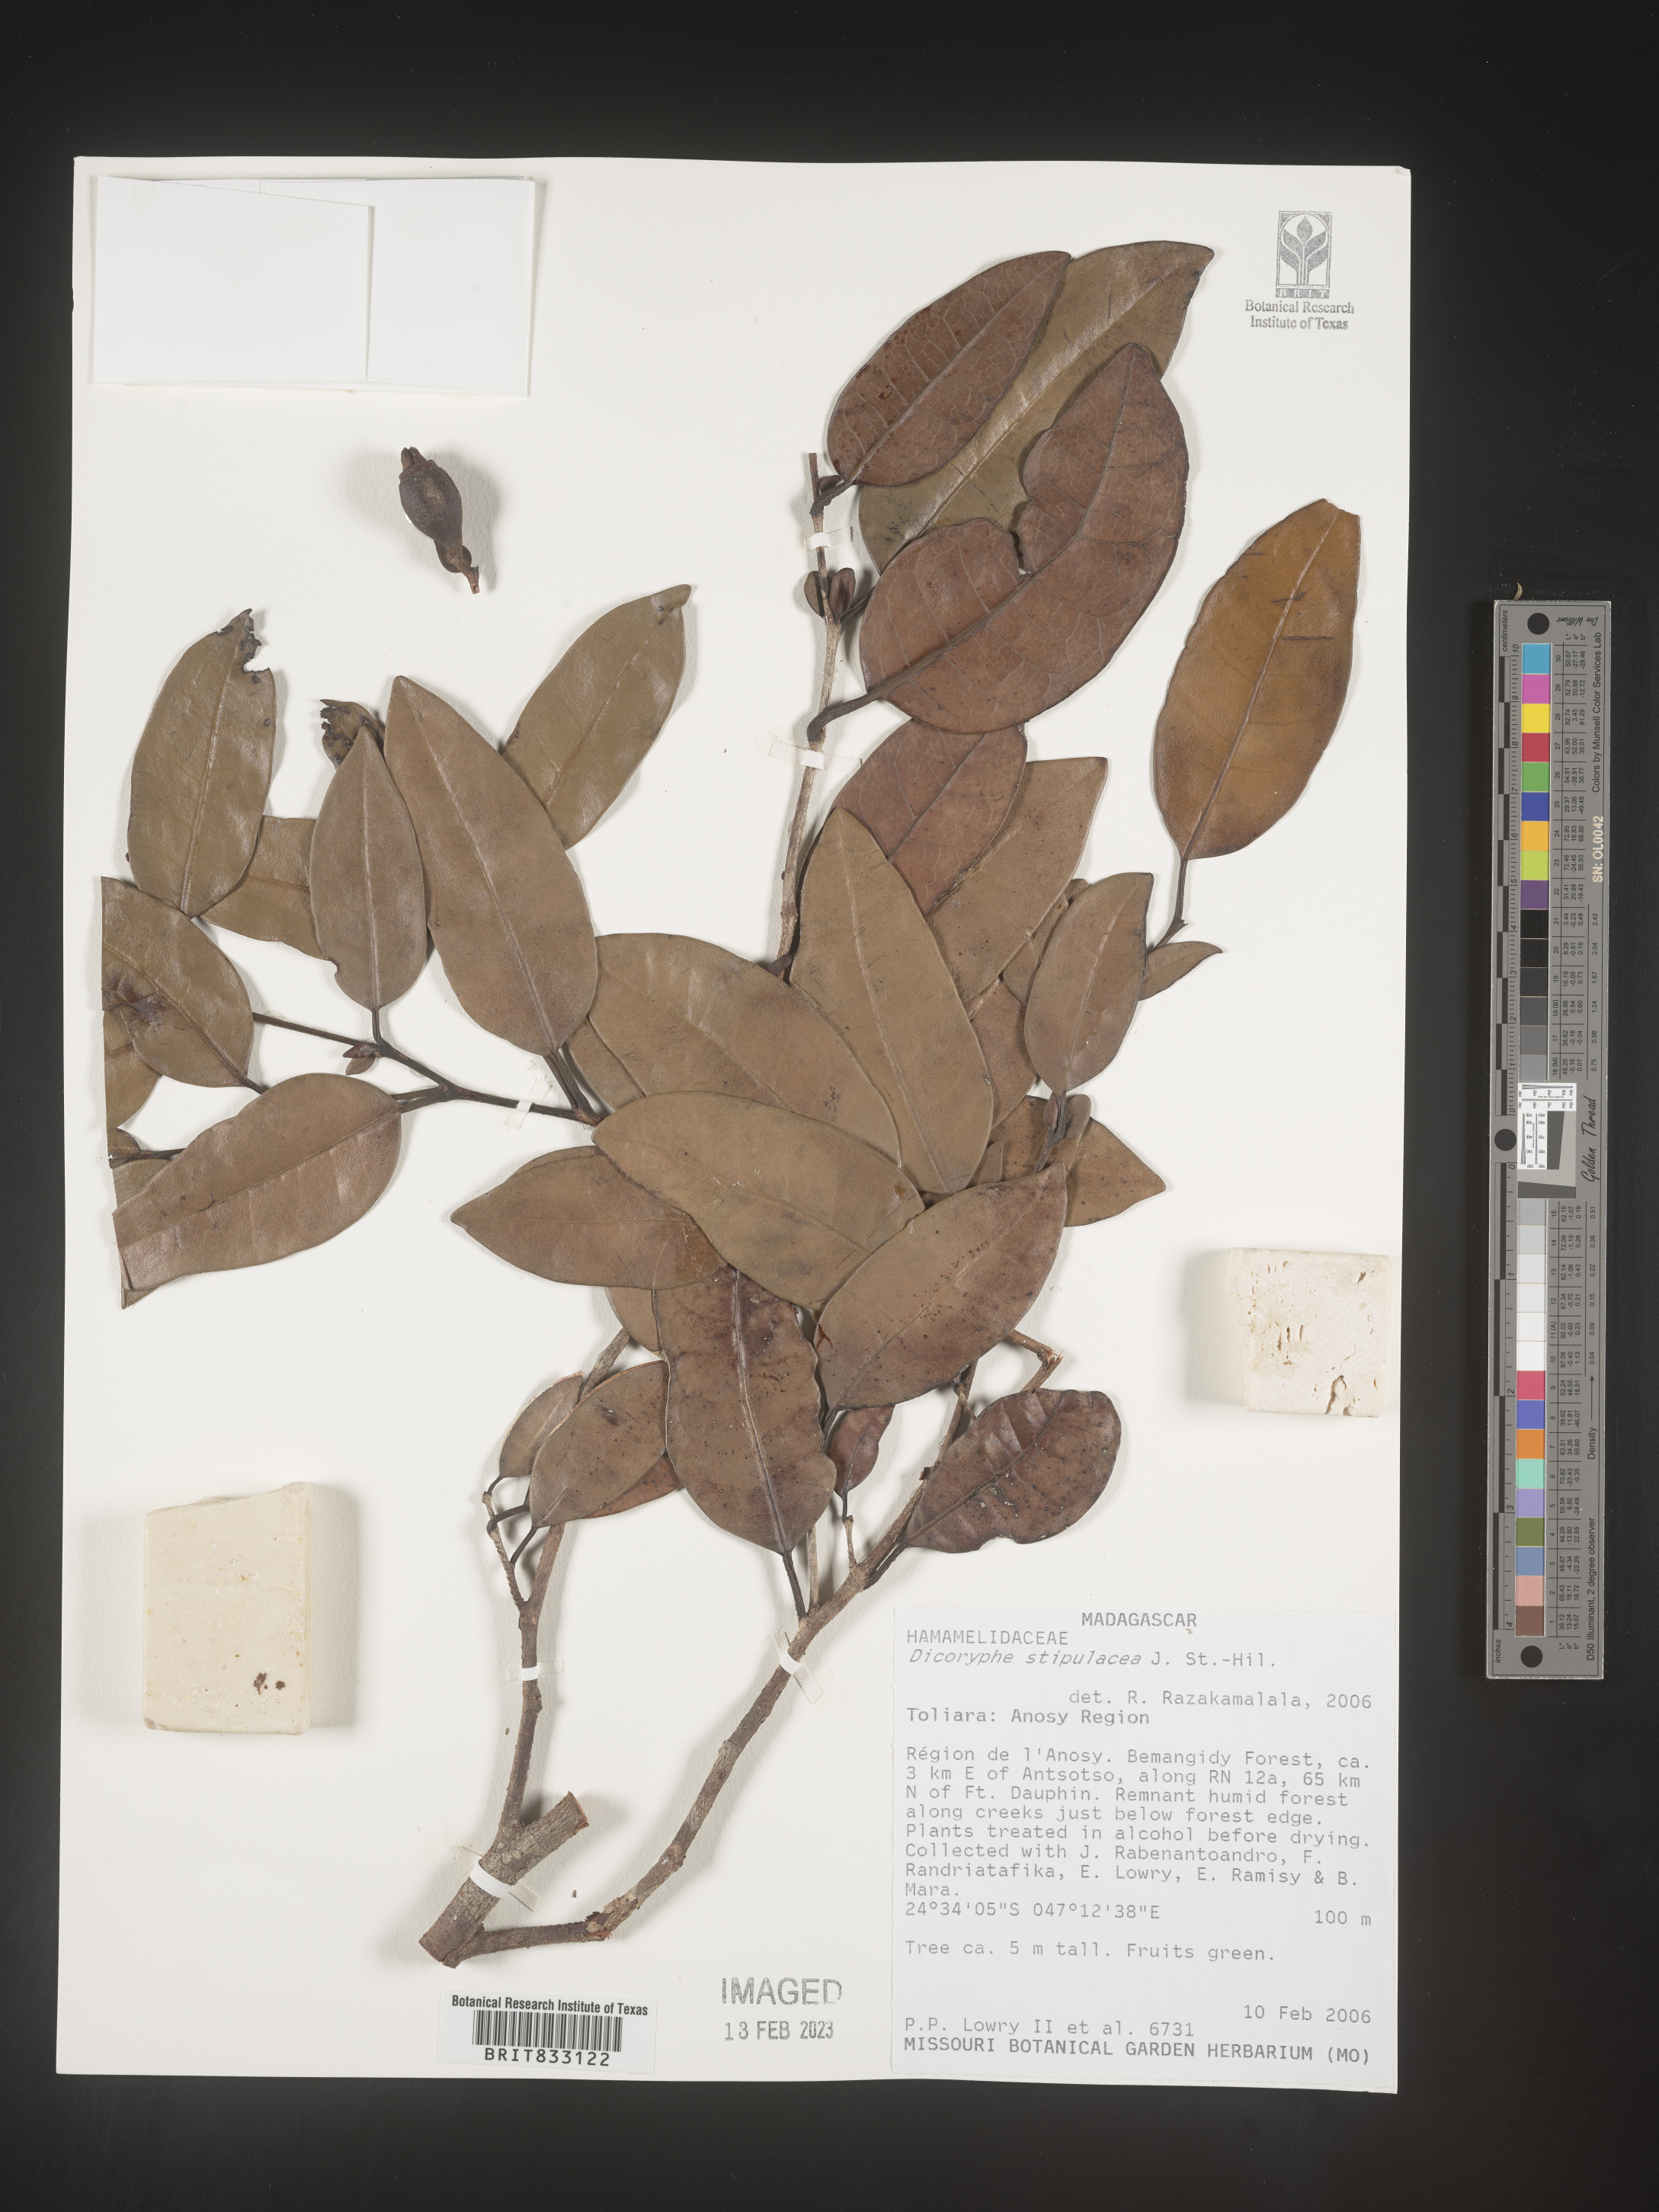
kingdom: Plantae
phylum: Tracheophyta
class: Magnoliopsida
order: Saxifragales
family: Hamamelidaceae
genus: Dicoryphe
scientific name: Dicoryphe stipulacea
